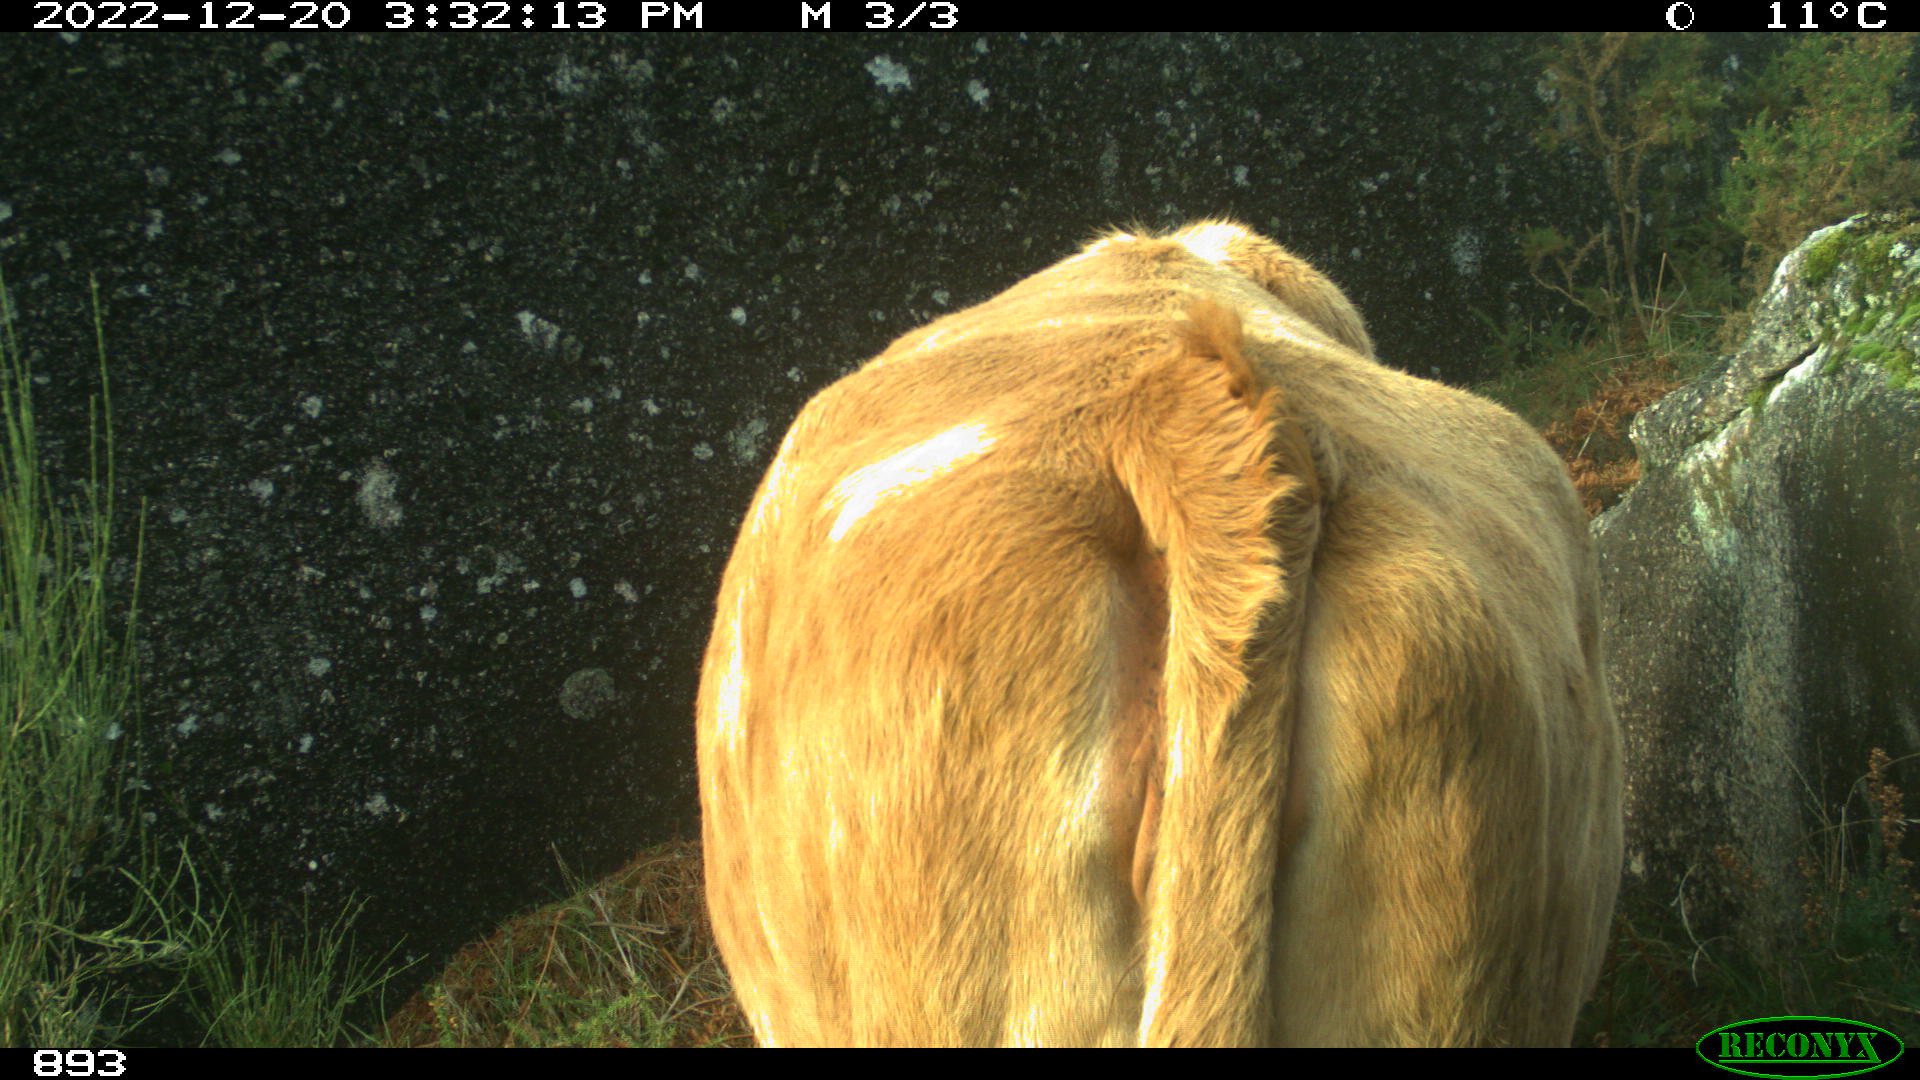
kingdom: Animalia
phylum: Chordata
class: Mammalia
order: Artiodactyla
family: Bovidae
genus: Bos
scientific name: Bos taurus
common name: Domesticated cattle
